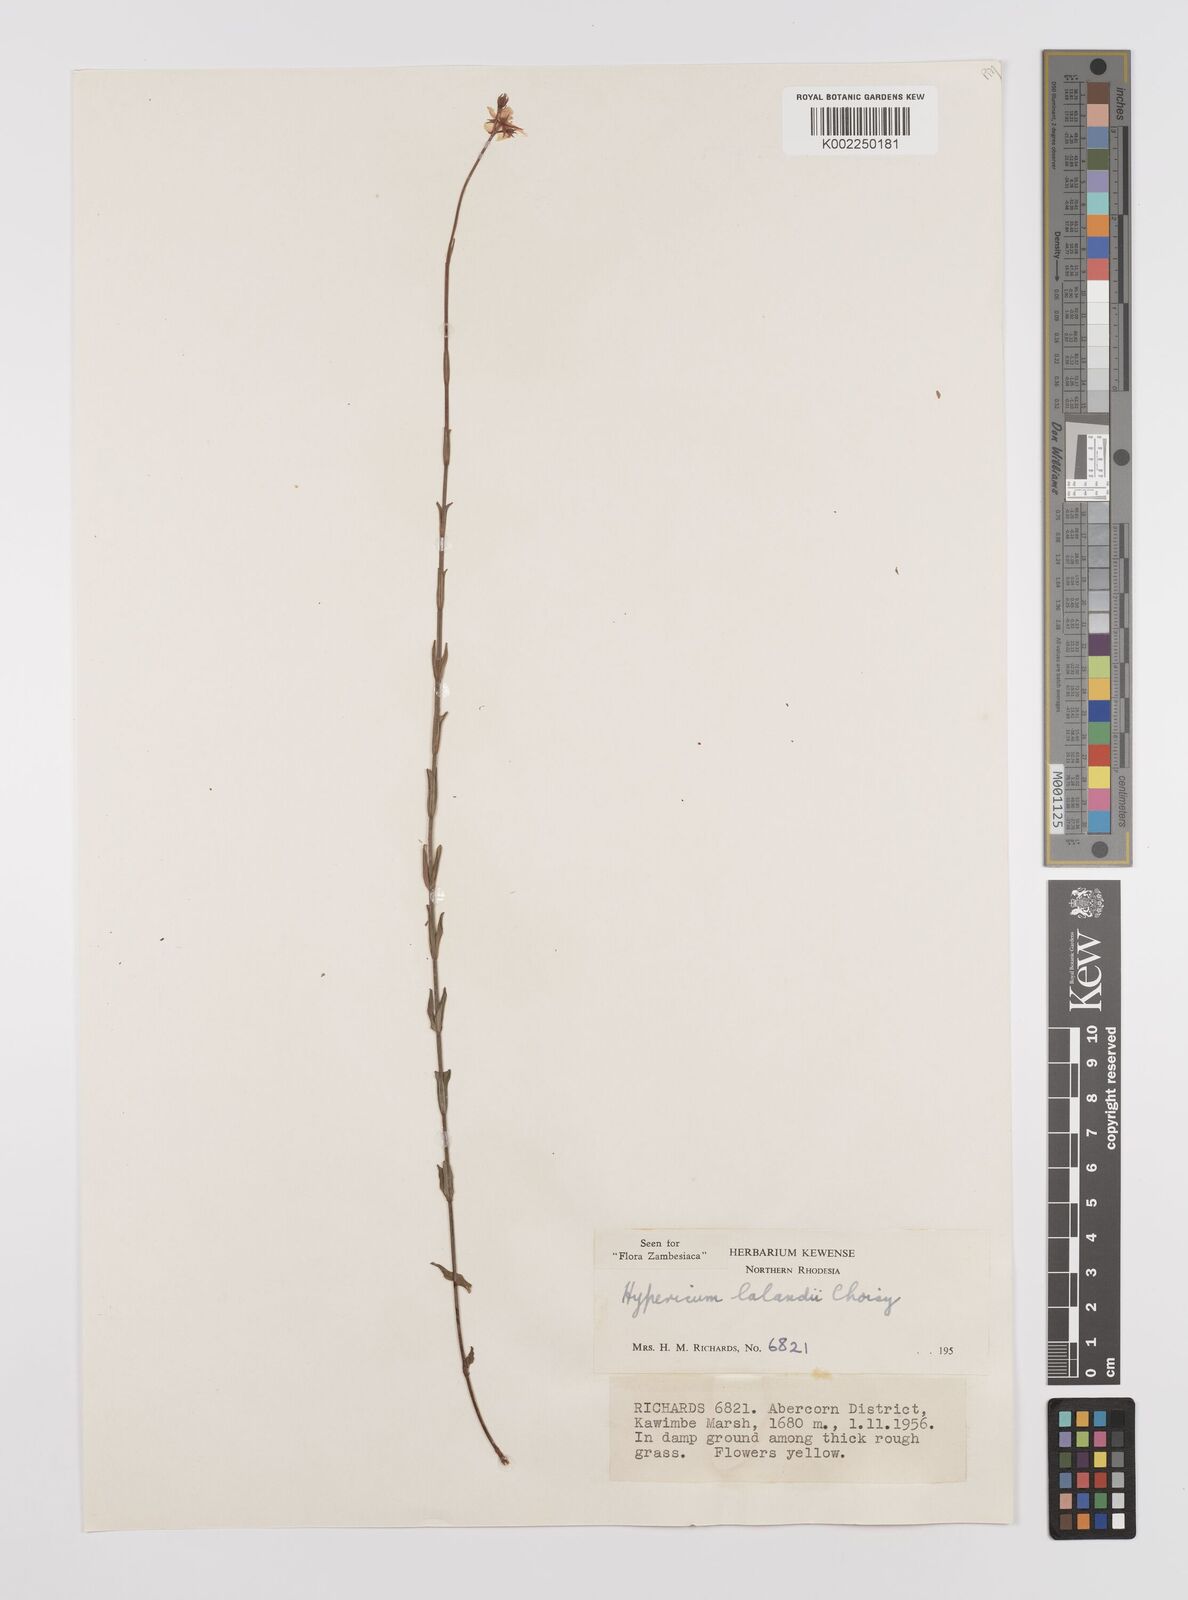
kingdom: Plantae
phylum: Tracheophyta
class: Magnoliopsida
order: Malpighiales
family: Hypericaceae
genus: Hypericum
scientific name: Hypericum lalandii
